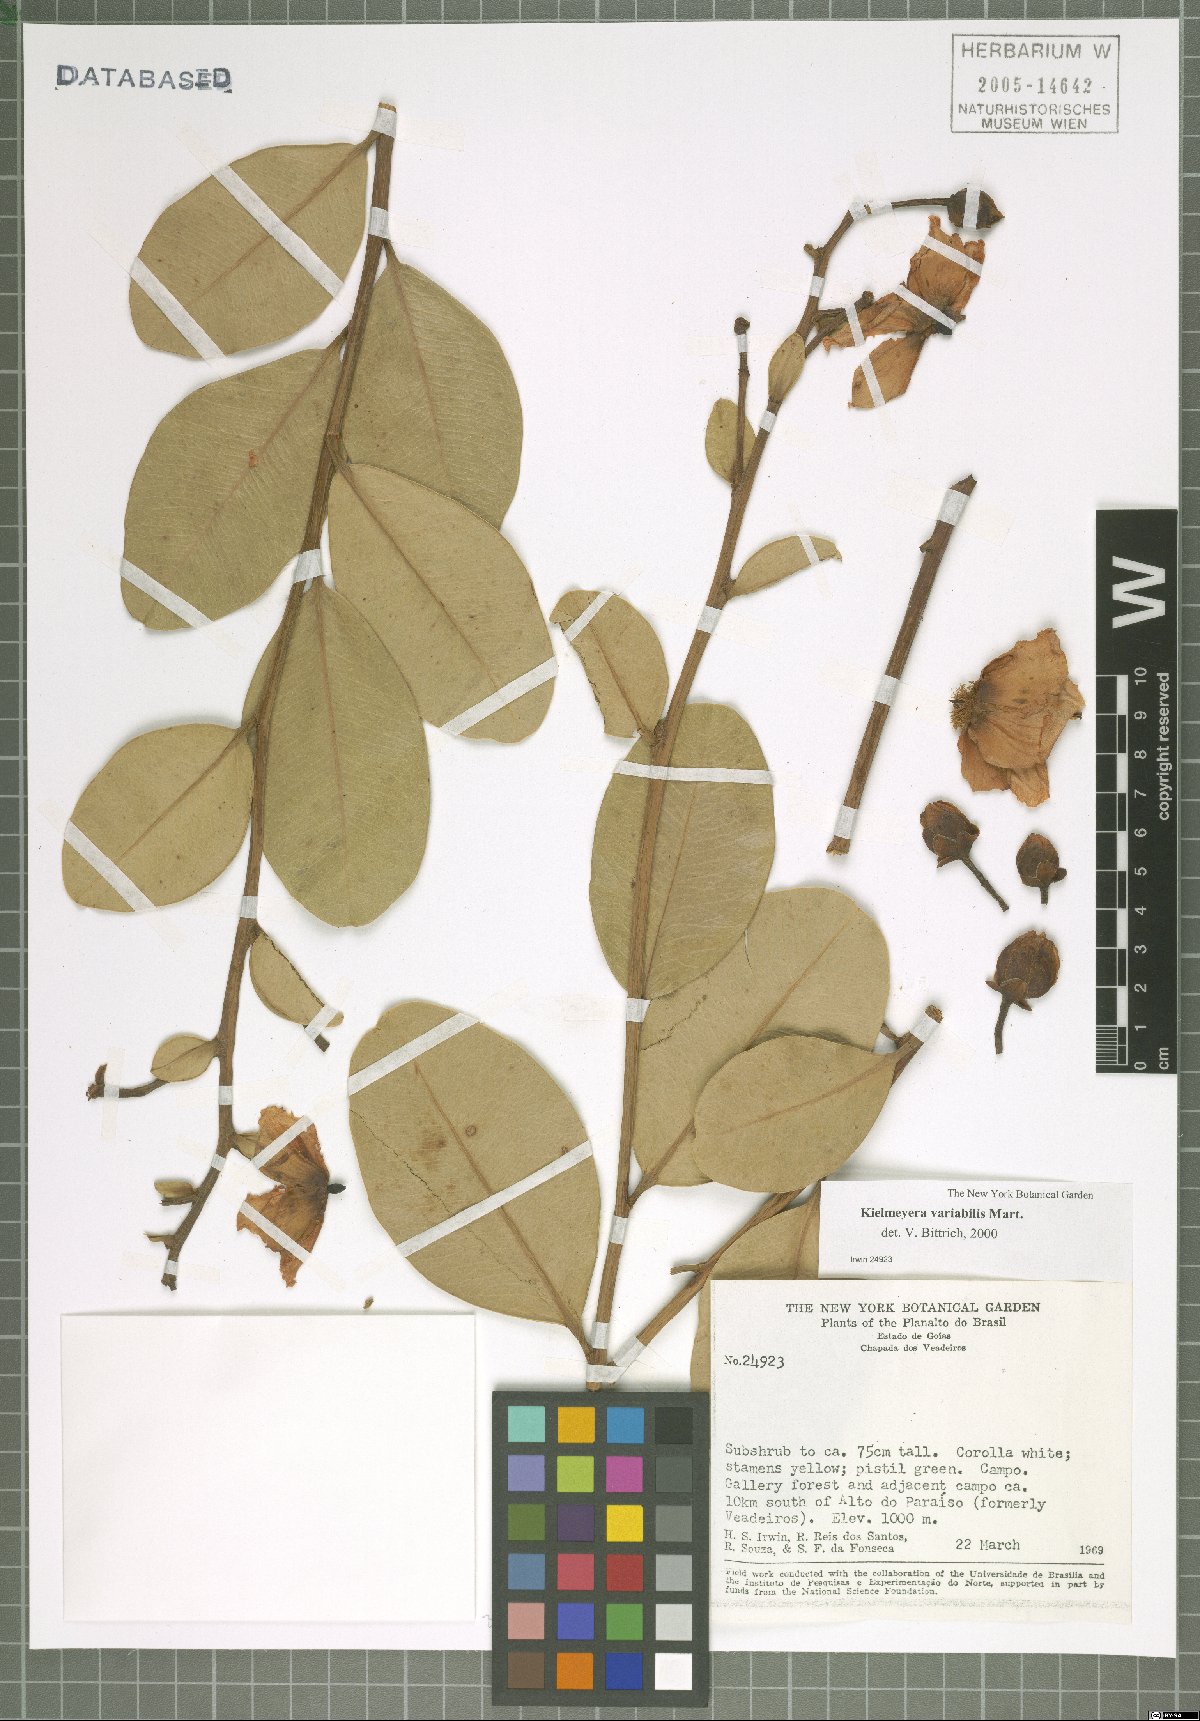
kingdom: Plantae
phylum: Tracheophyta
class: Magnoliopsida
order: Malpighiales
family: Calophyllaceae
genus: Kielmeyera
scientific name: Kielmeyera variabilis
